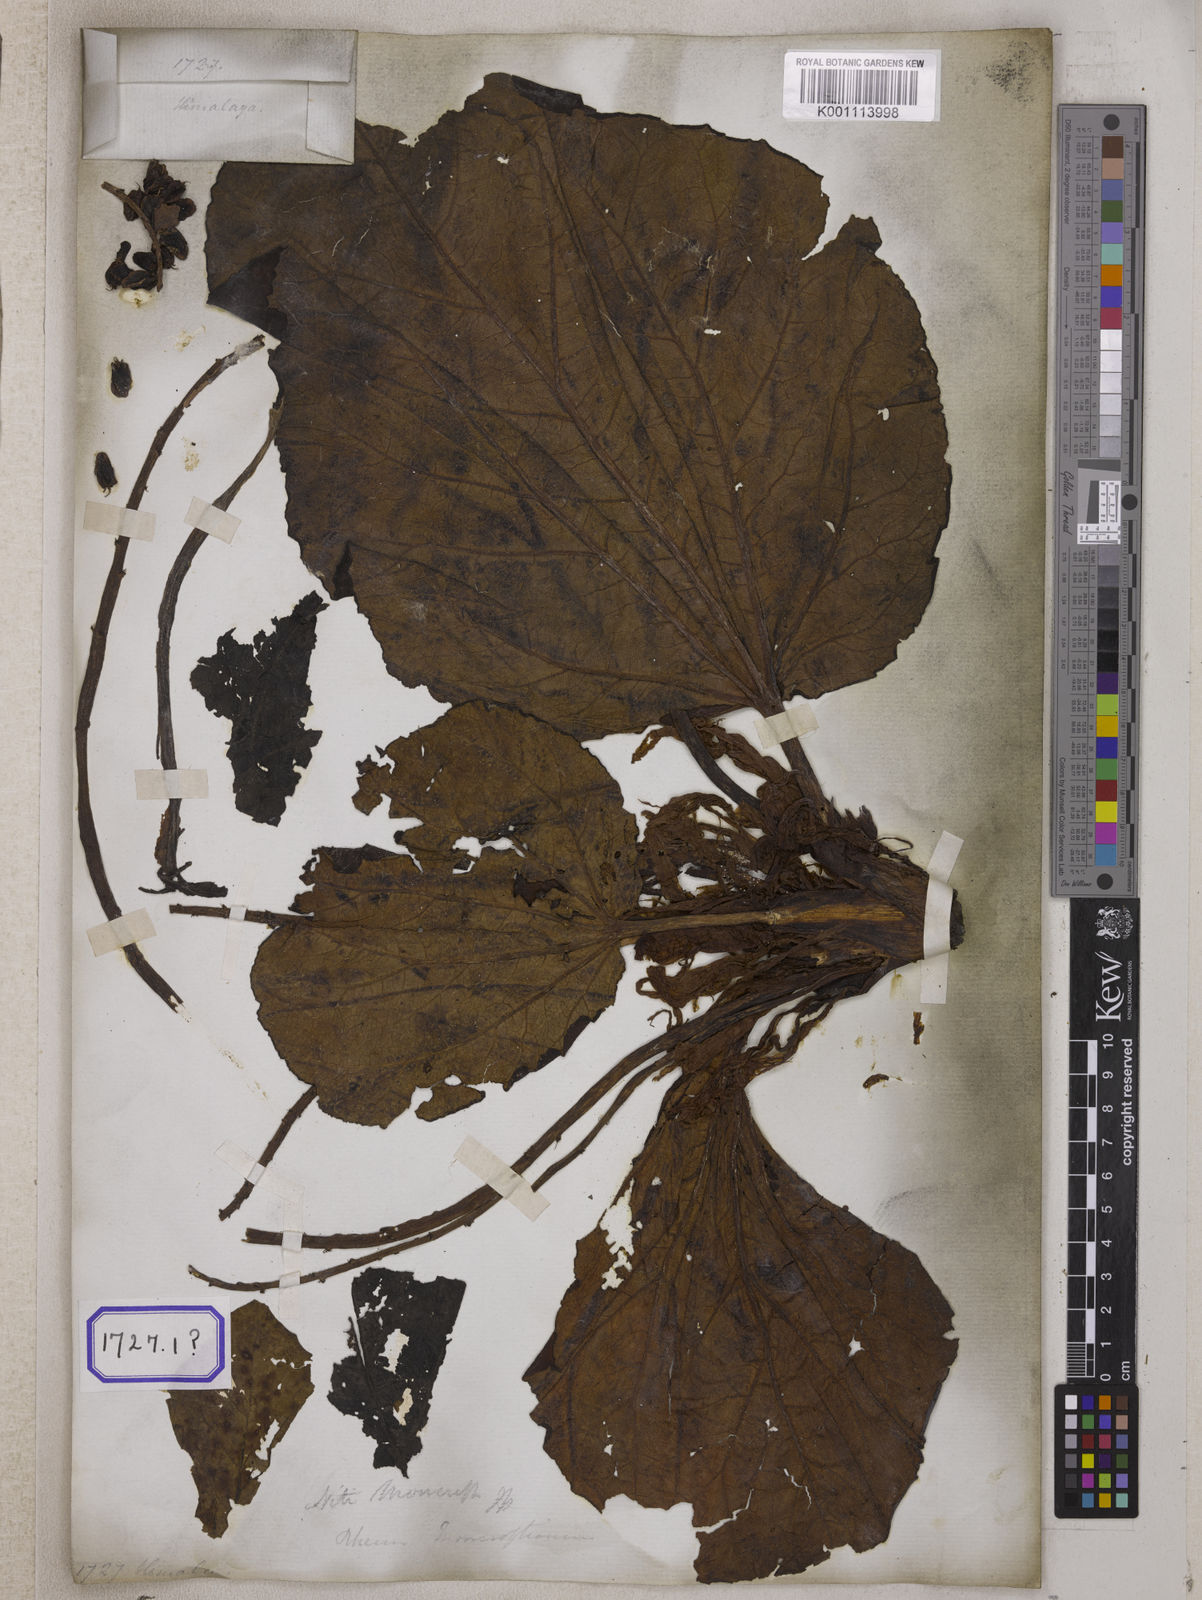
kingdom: Plantae
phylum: Tracheophyta
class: Magnoliopsida
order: Caryophyllales
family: Polygonaceae
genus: Rheum
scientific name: Rheum
